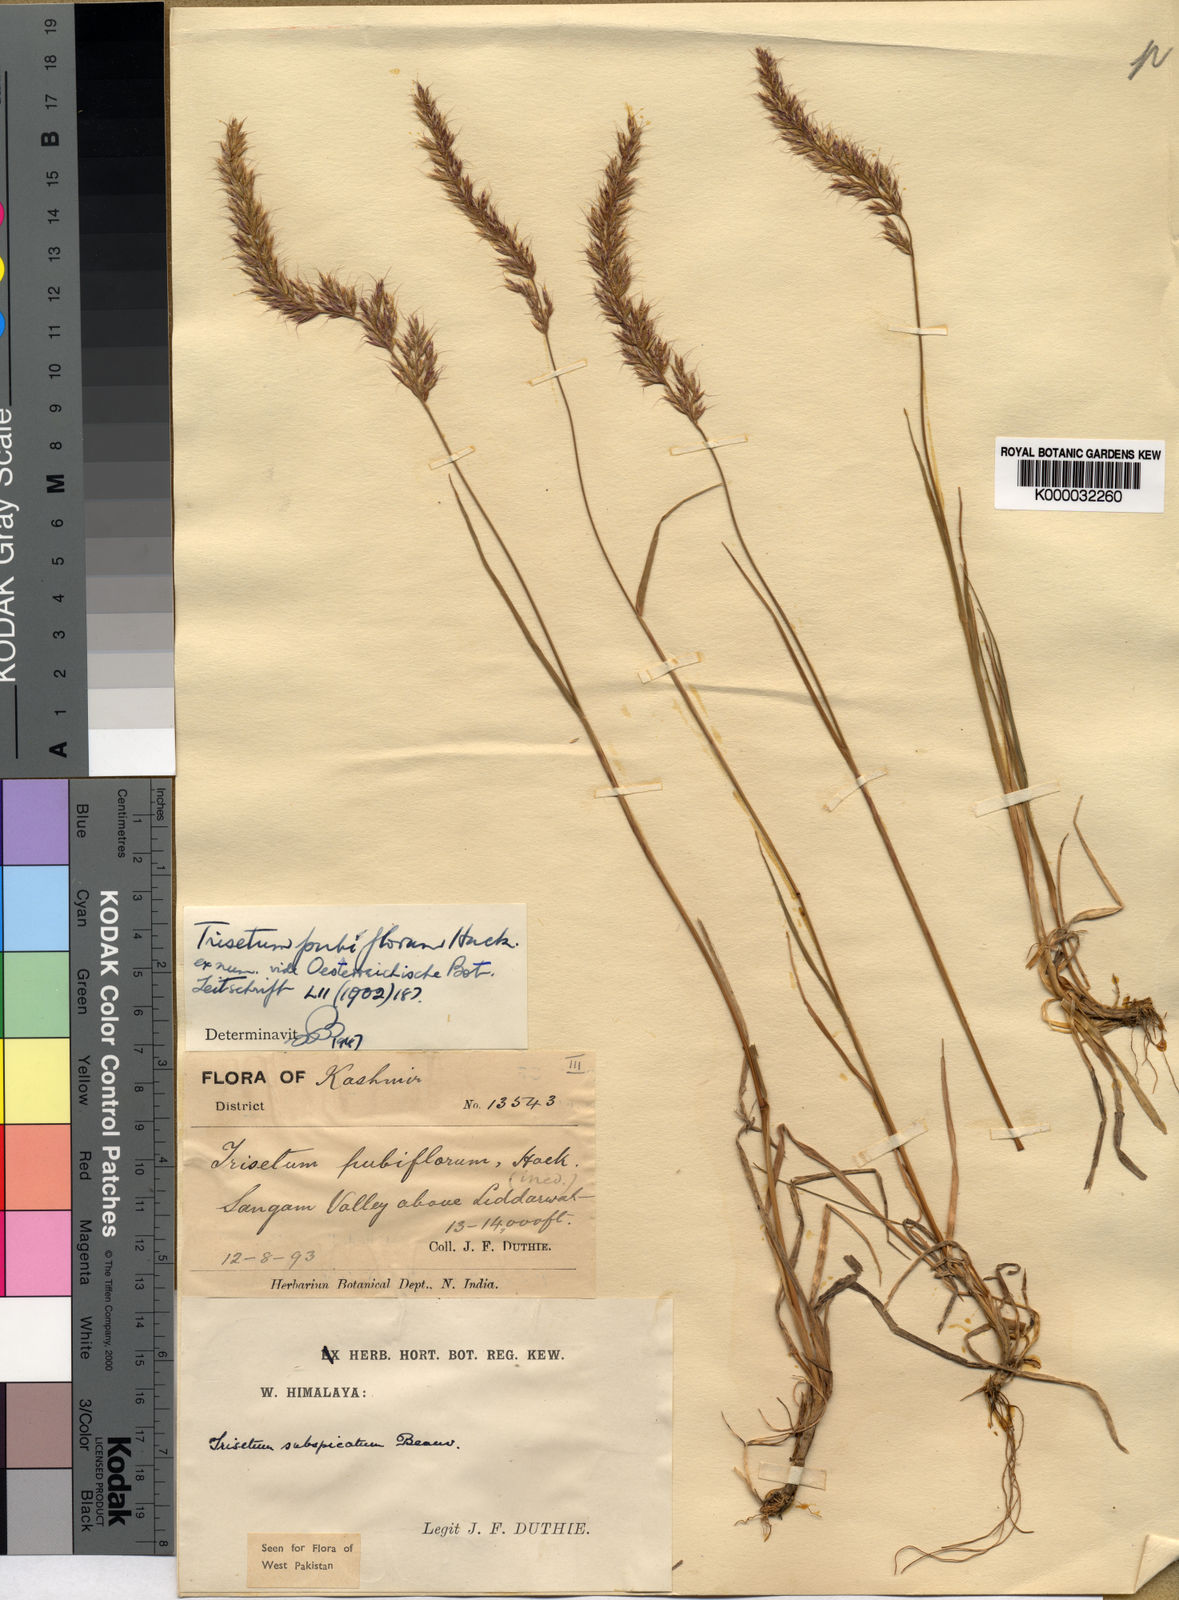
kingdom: Plantae
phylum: Tracheophyta
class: Liliopsida
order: Poales
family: Poaceae
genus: Koeleria
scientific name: Koeleria spicata
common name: Mountain trisetum
